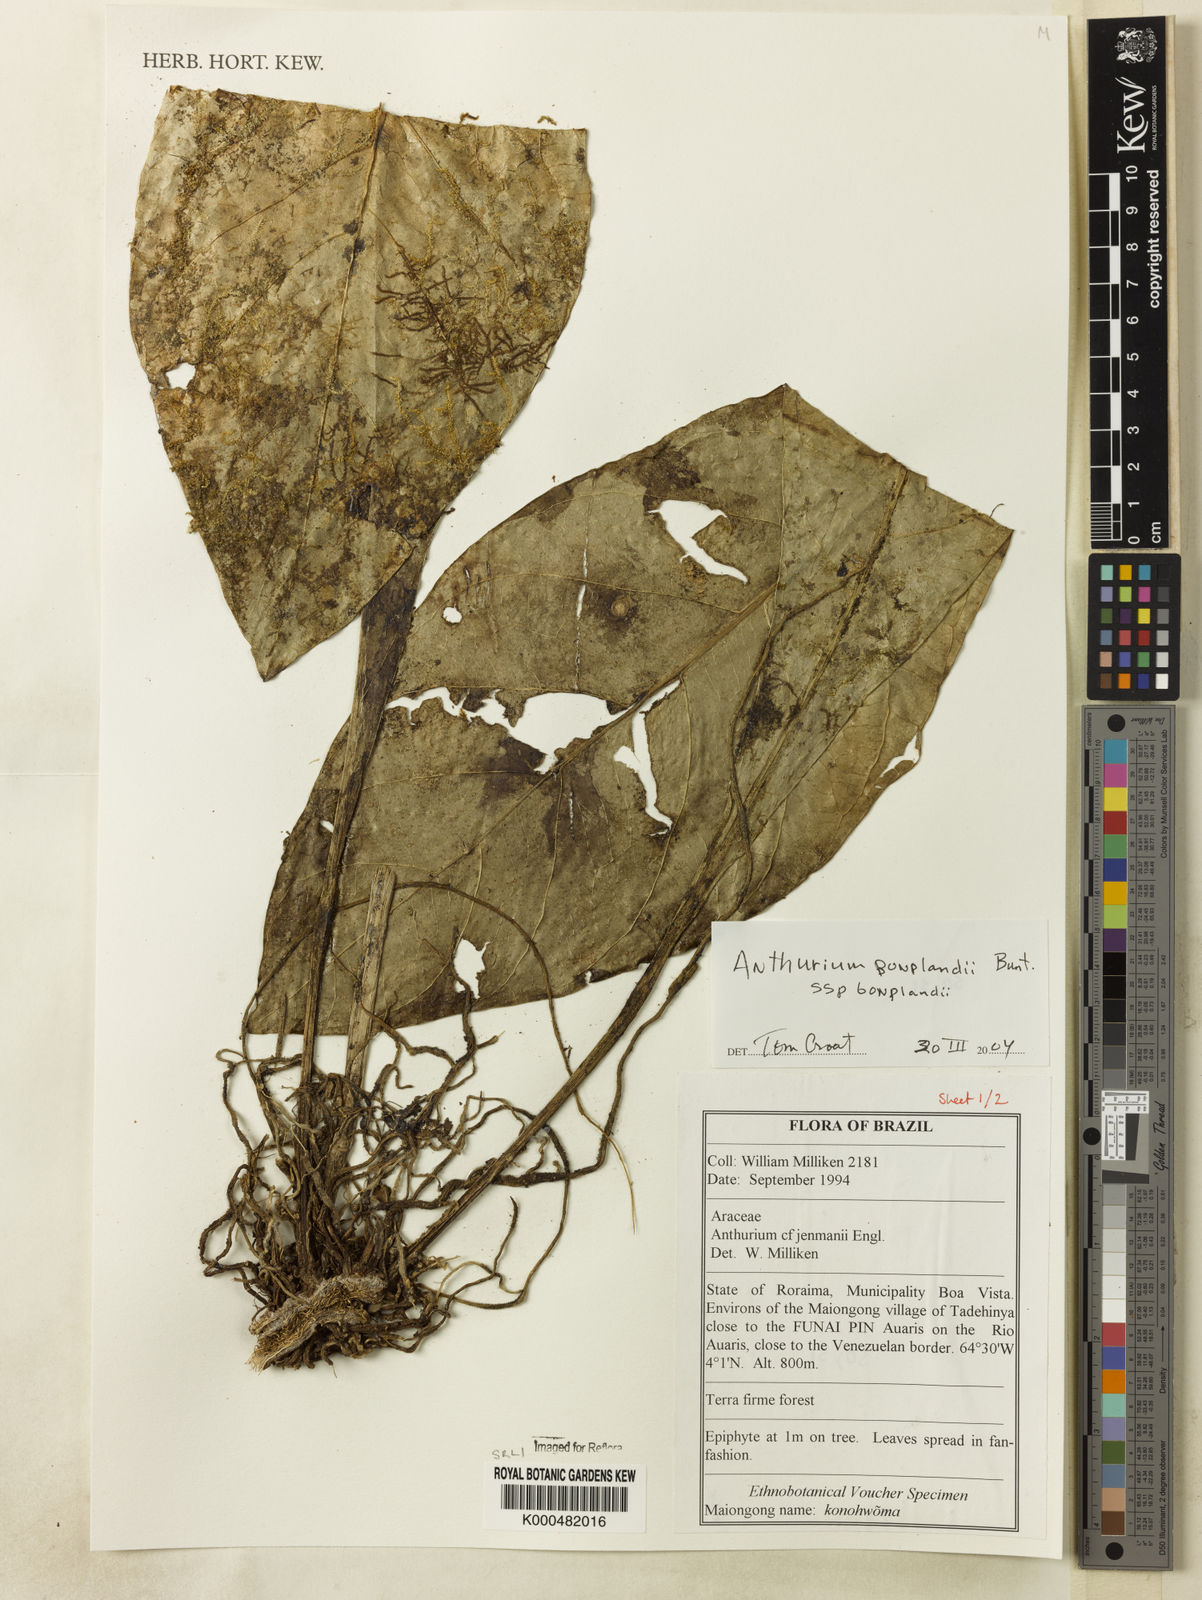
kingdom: Plantae
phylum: Tracheophyta
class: Liliopsida
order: Alismatales
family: Araceae
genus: Anthurium
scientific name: Anthurium bonplandii
